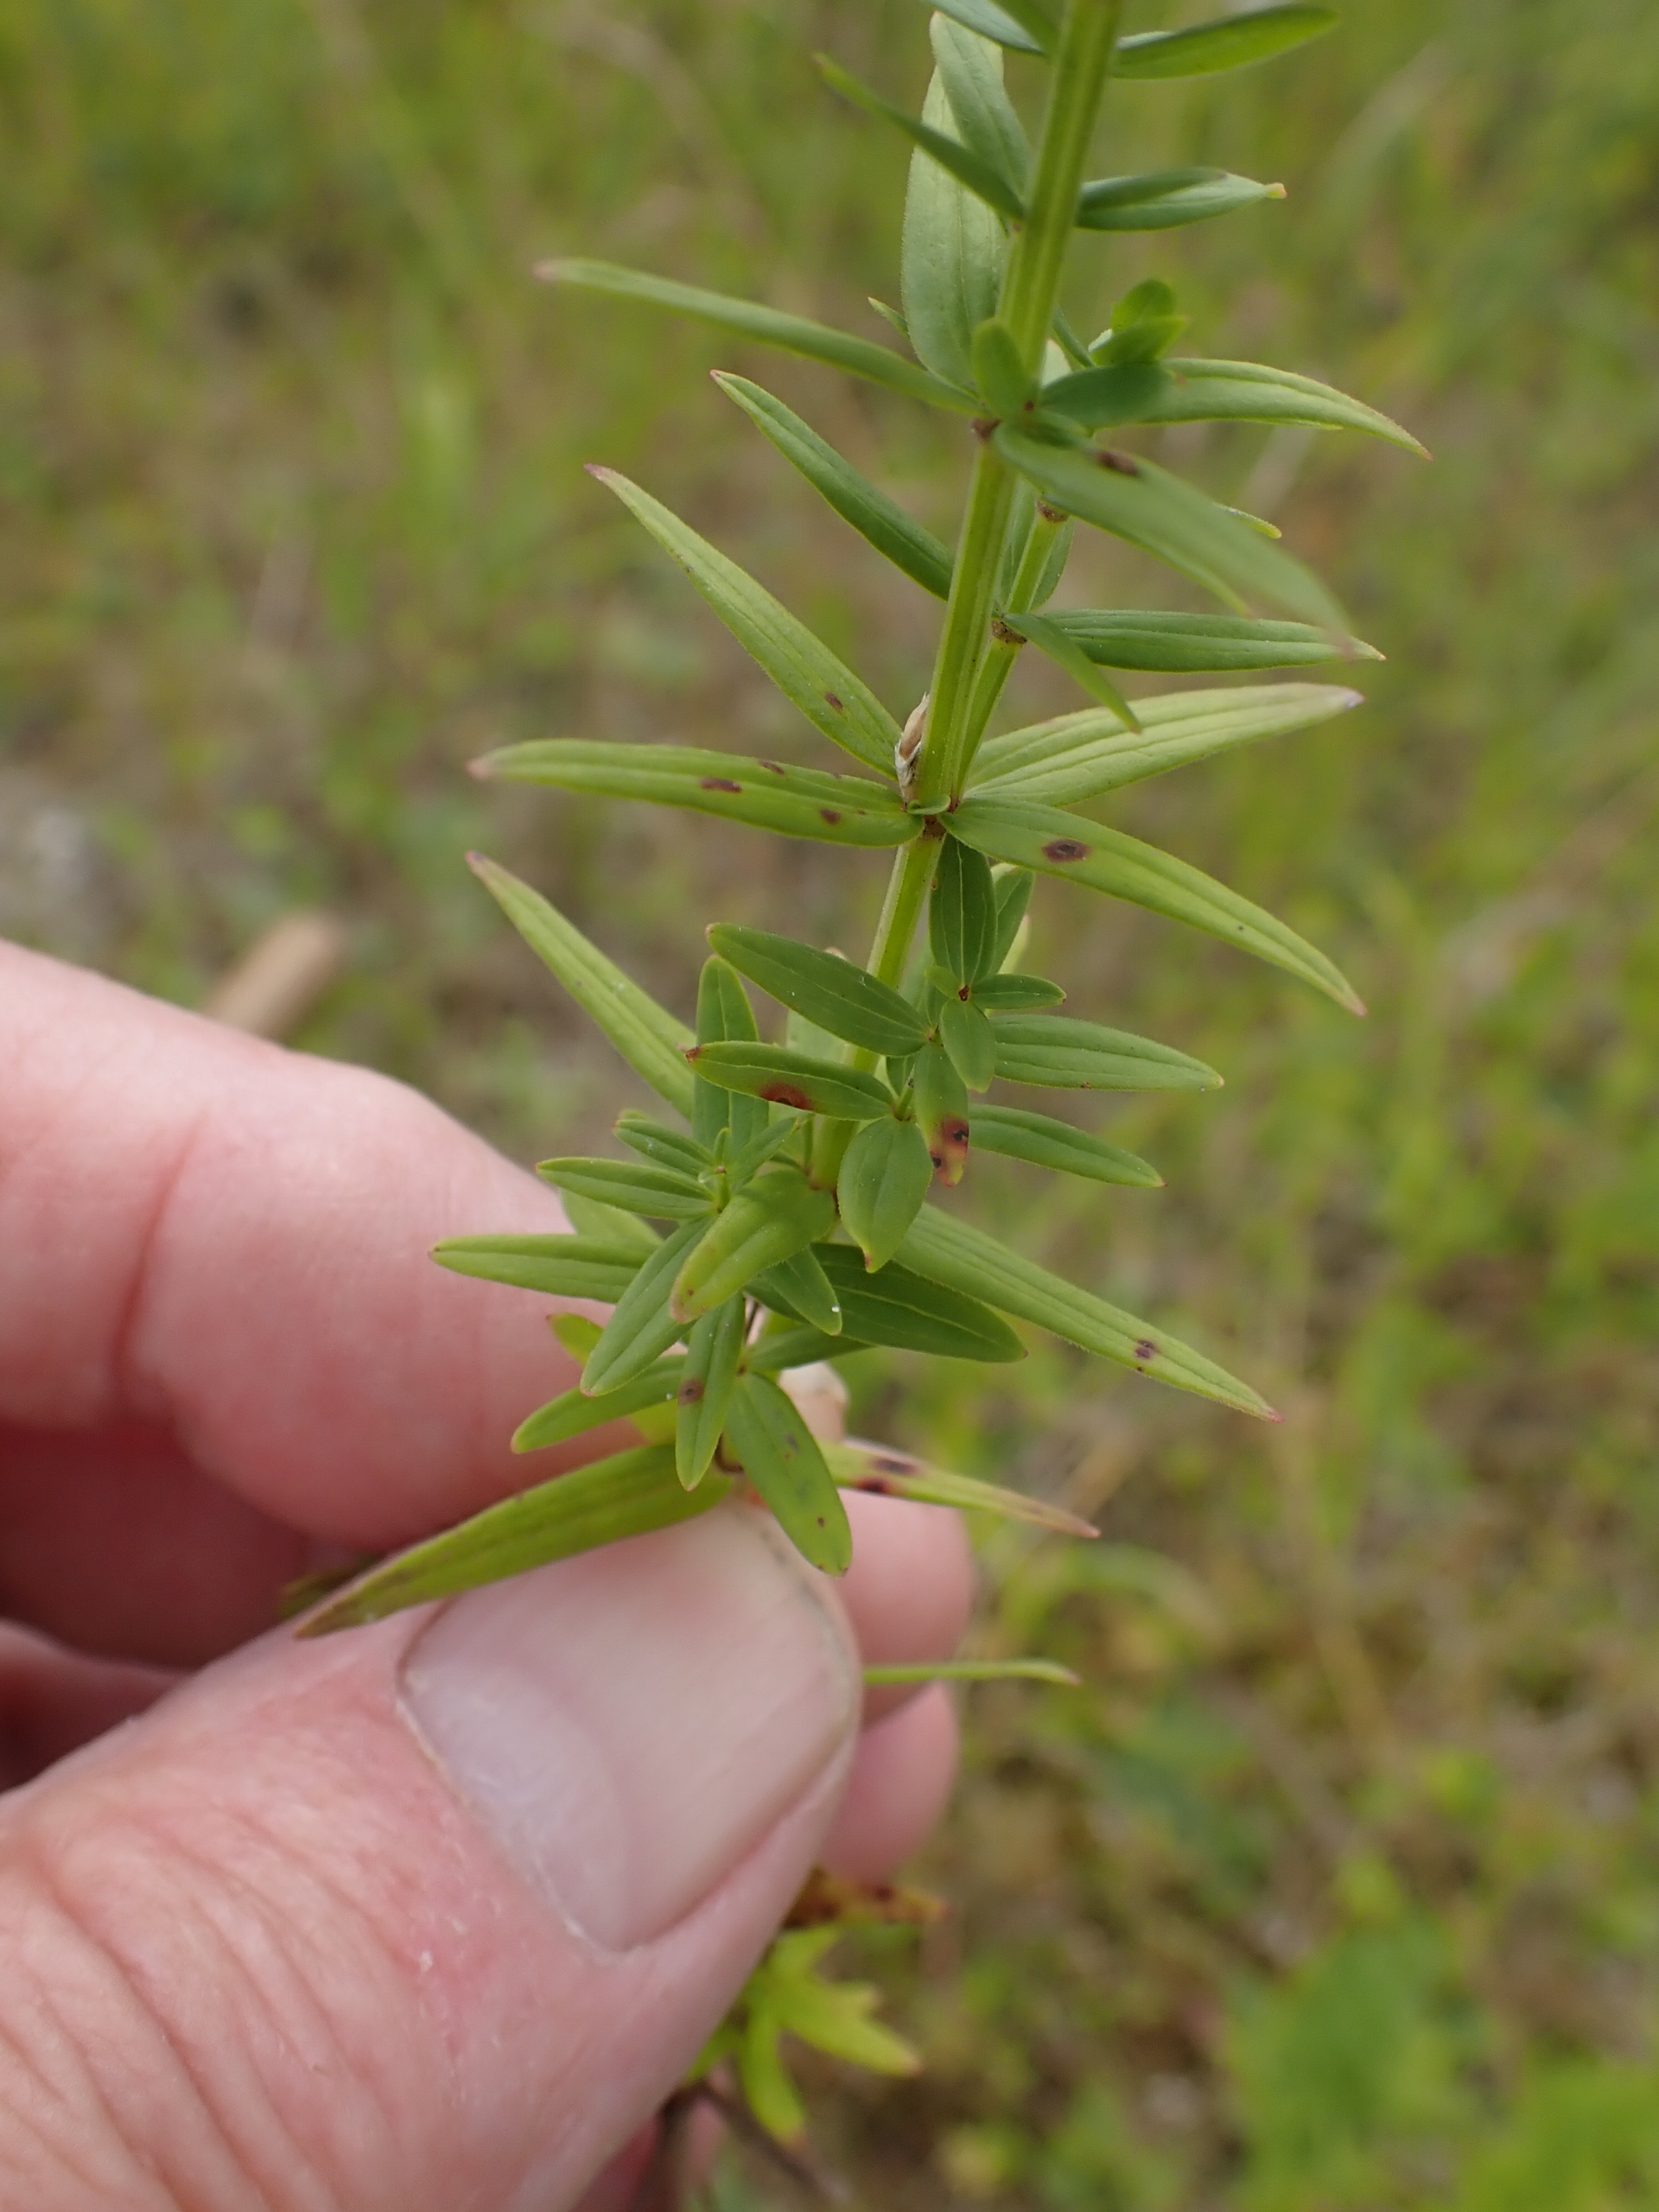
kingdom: Plantae
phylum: Tracheophyta
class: Magnoliopsida
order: Gentianales
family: Rubiaceae
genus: Galium
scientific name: Galium boreale
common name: Trenervet snerre
